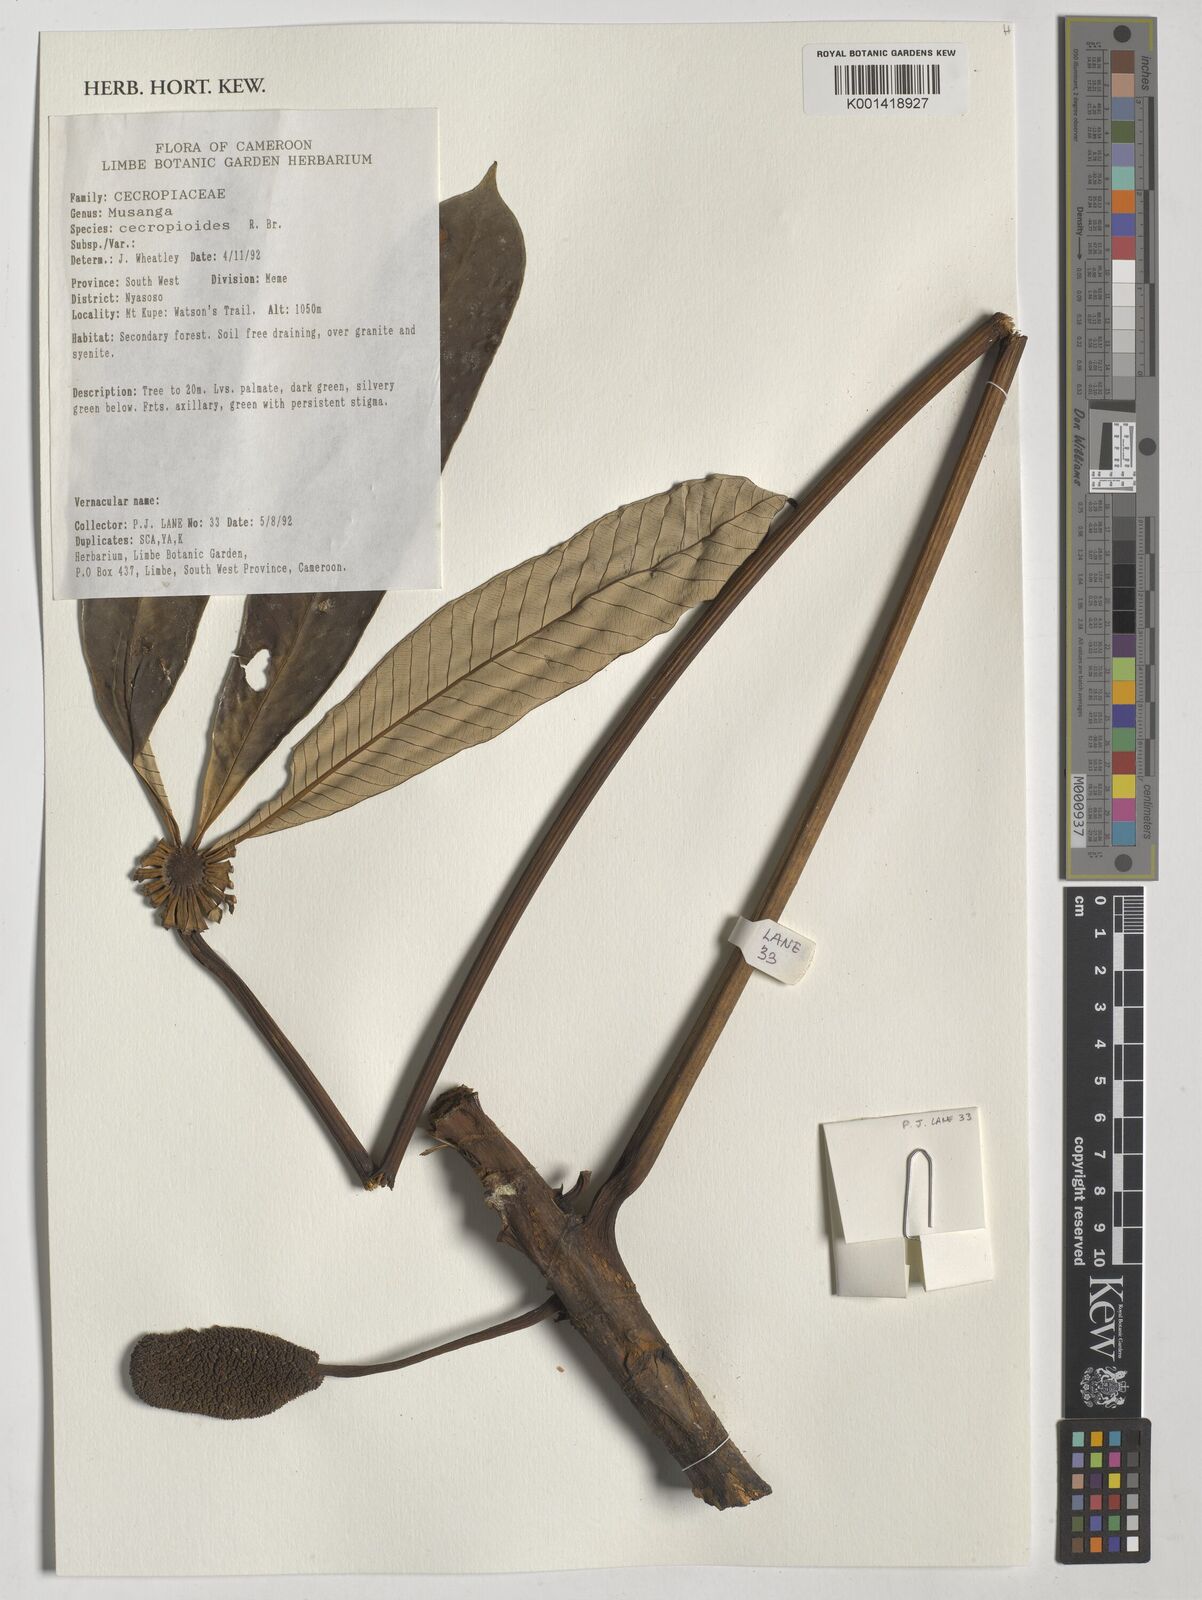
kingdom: Plantae
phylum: Tracheophyta
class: Magnoliopsida
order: Rosales
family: Urticaceae
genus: Musanga
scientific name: Musanga cecropioides
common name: African corkwood
